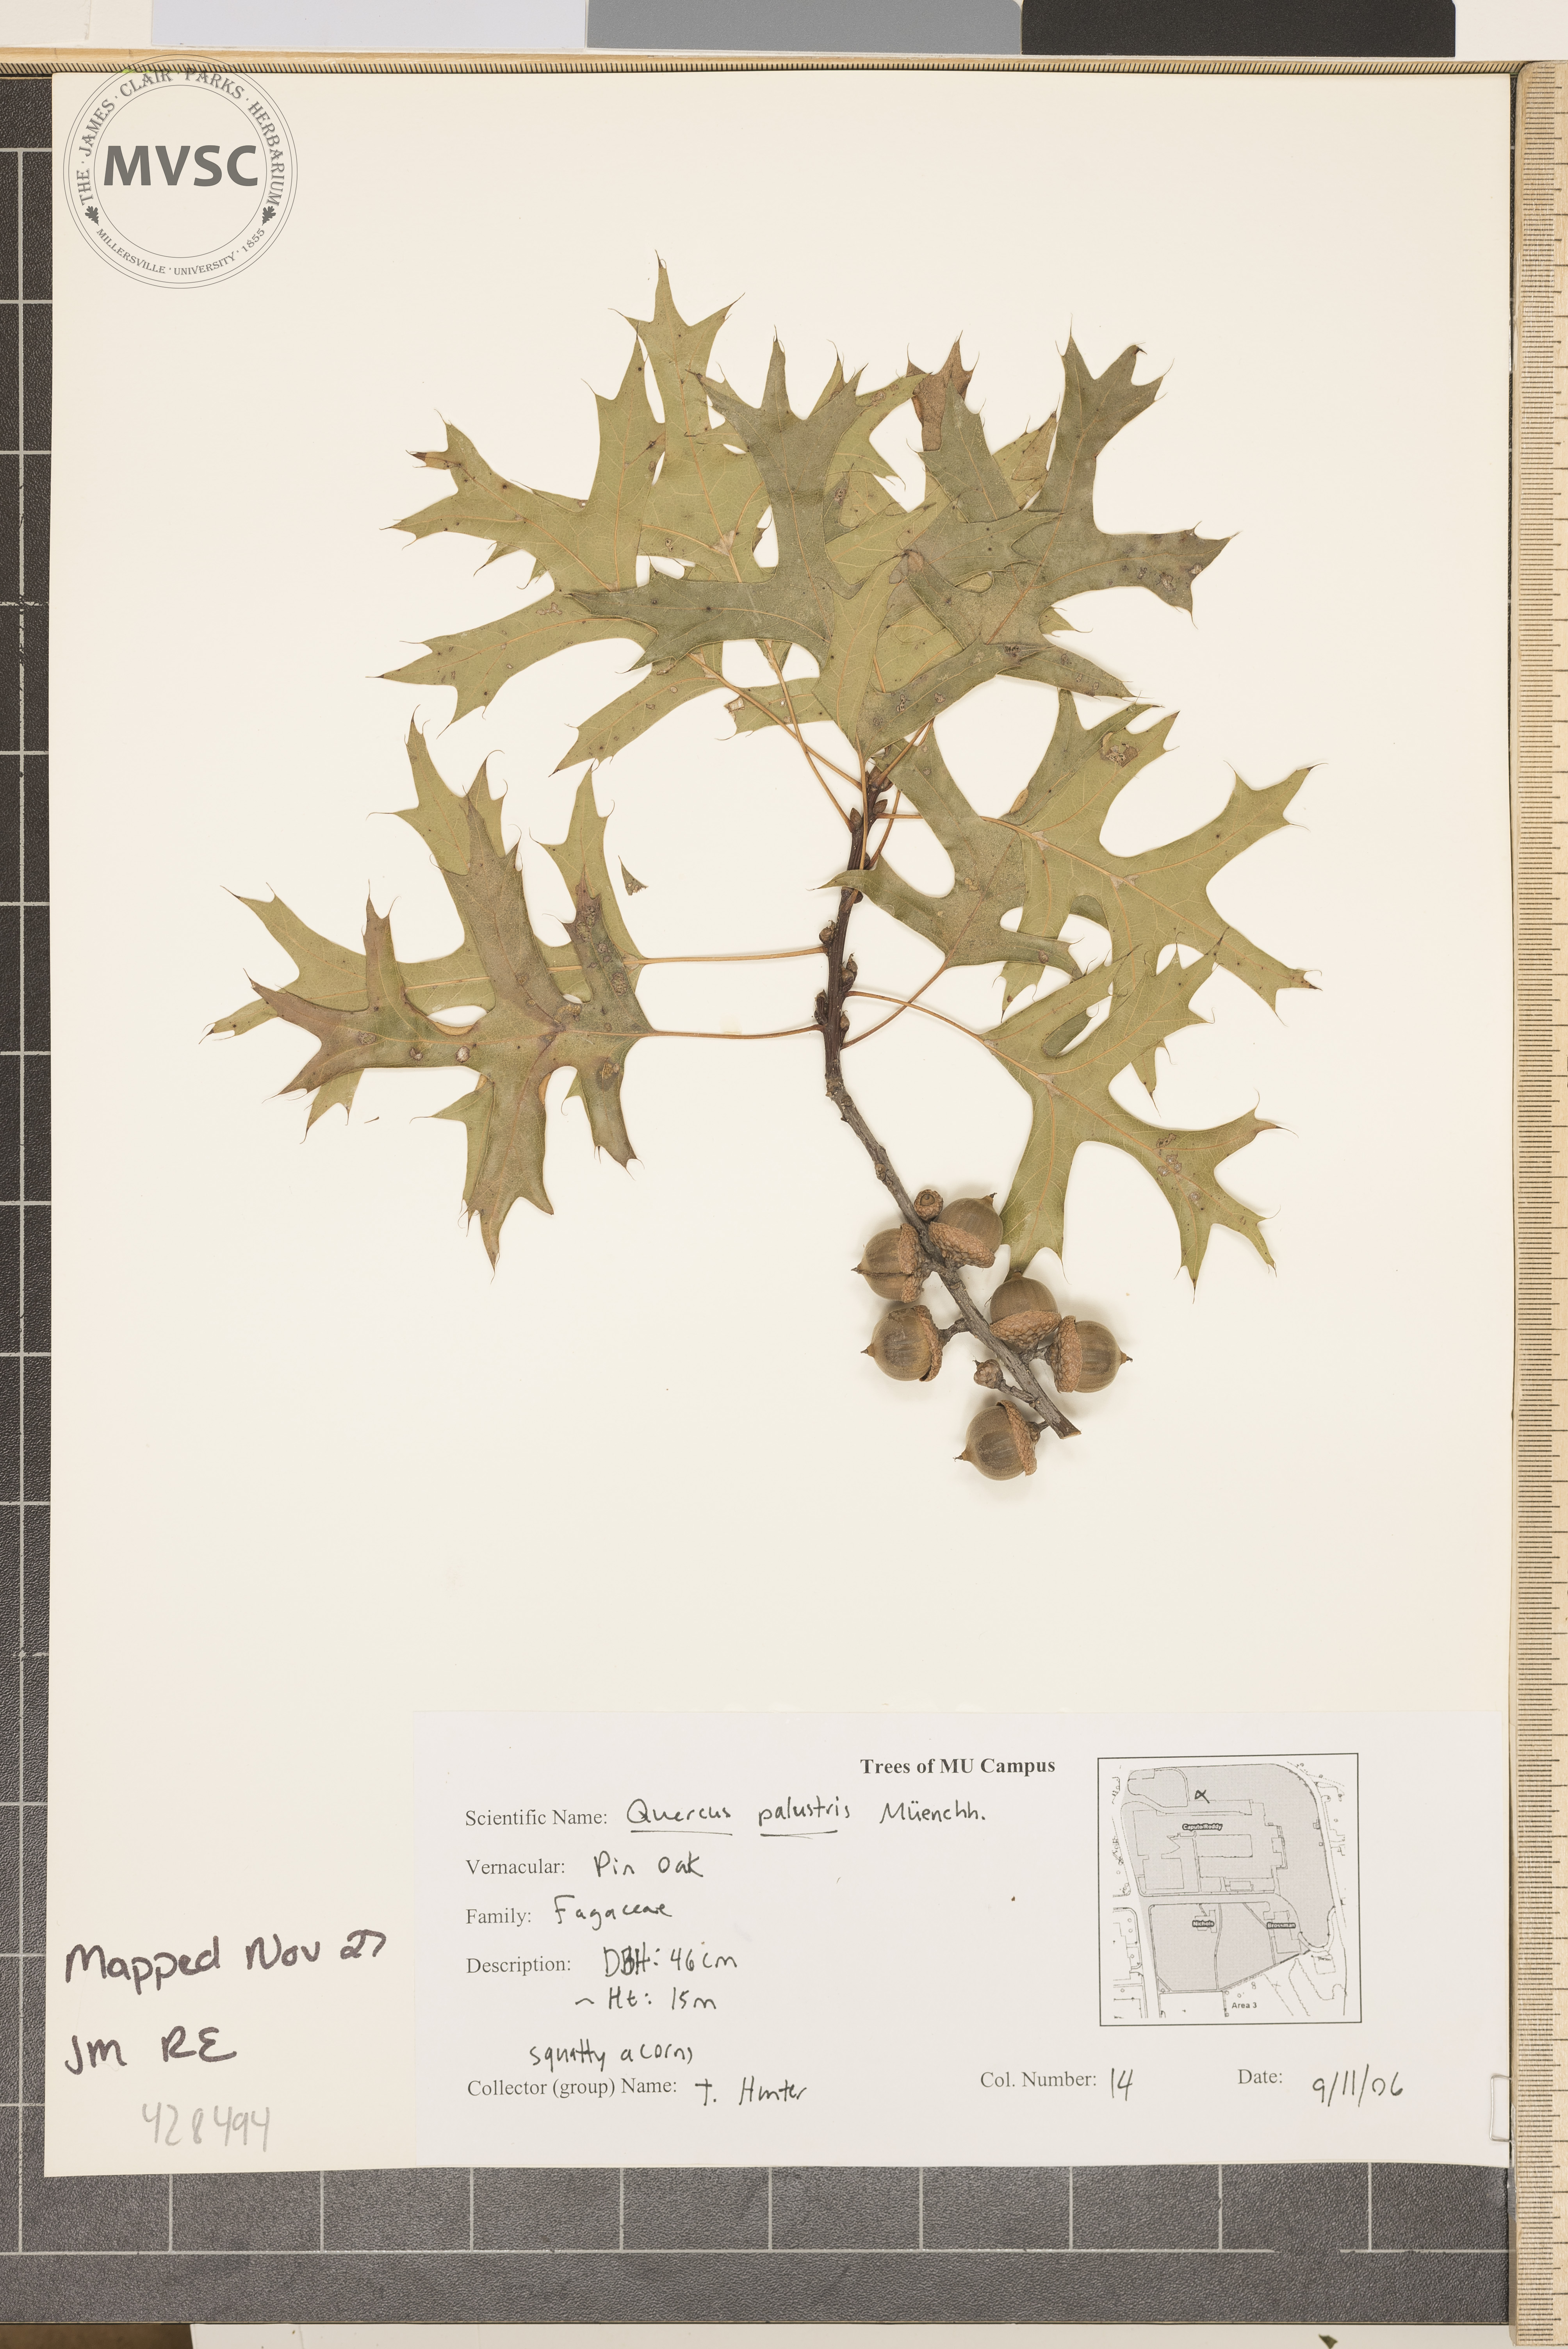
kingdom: Plantae
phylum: Tracheophyta
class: Magnoliopsida
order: Fagales
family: Fagaceae
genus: Quercus
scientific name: Quercus palustris
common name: Pin Oak
